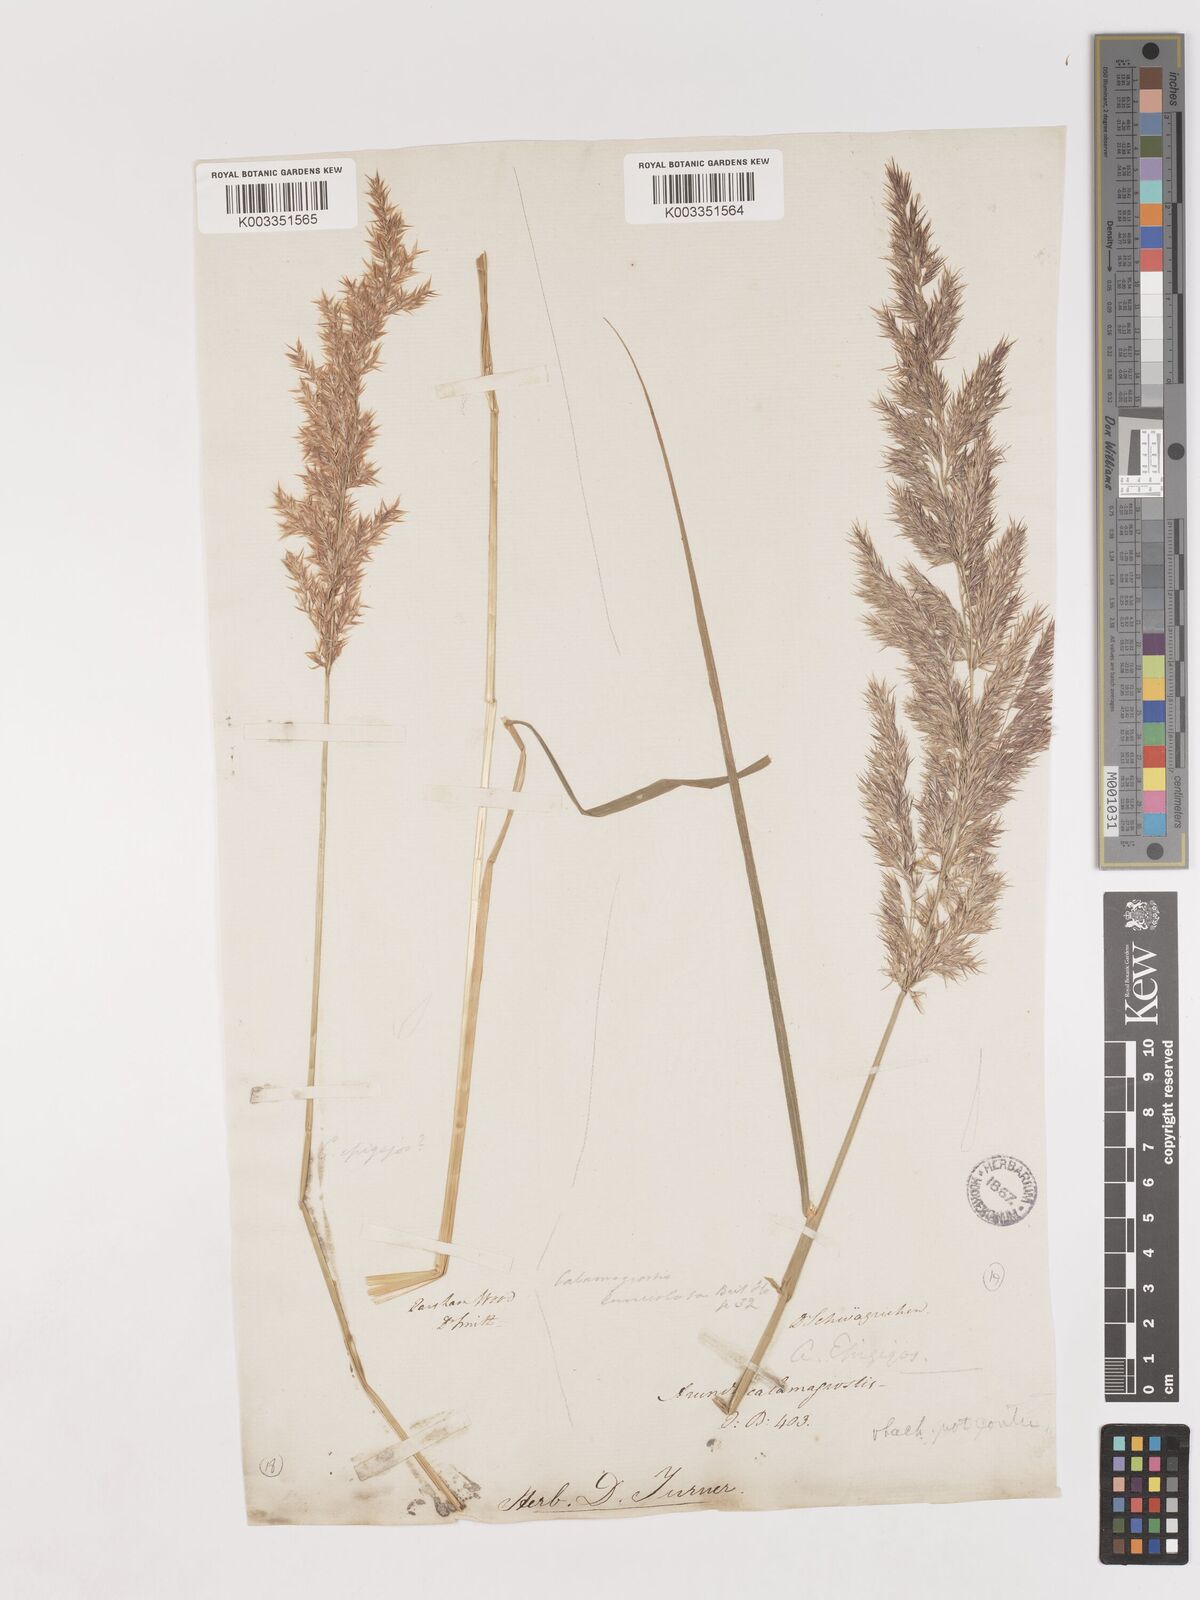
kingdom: Plantae
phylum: Tracheophyta
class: Liliopsida
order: Poales
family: Poaceae
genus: Calamagrostis
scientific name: Calamagrostis canescens
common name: Purple small-reed
